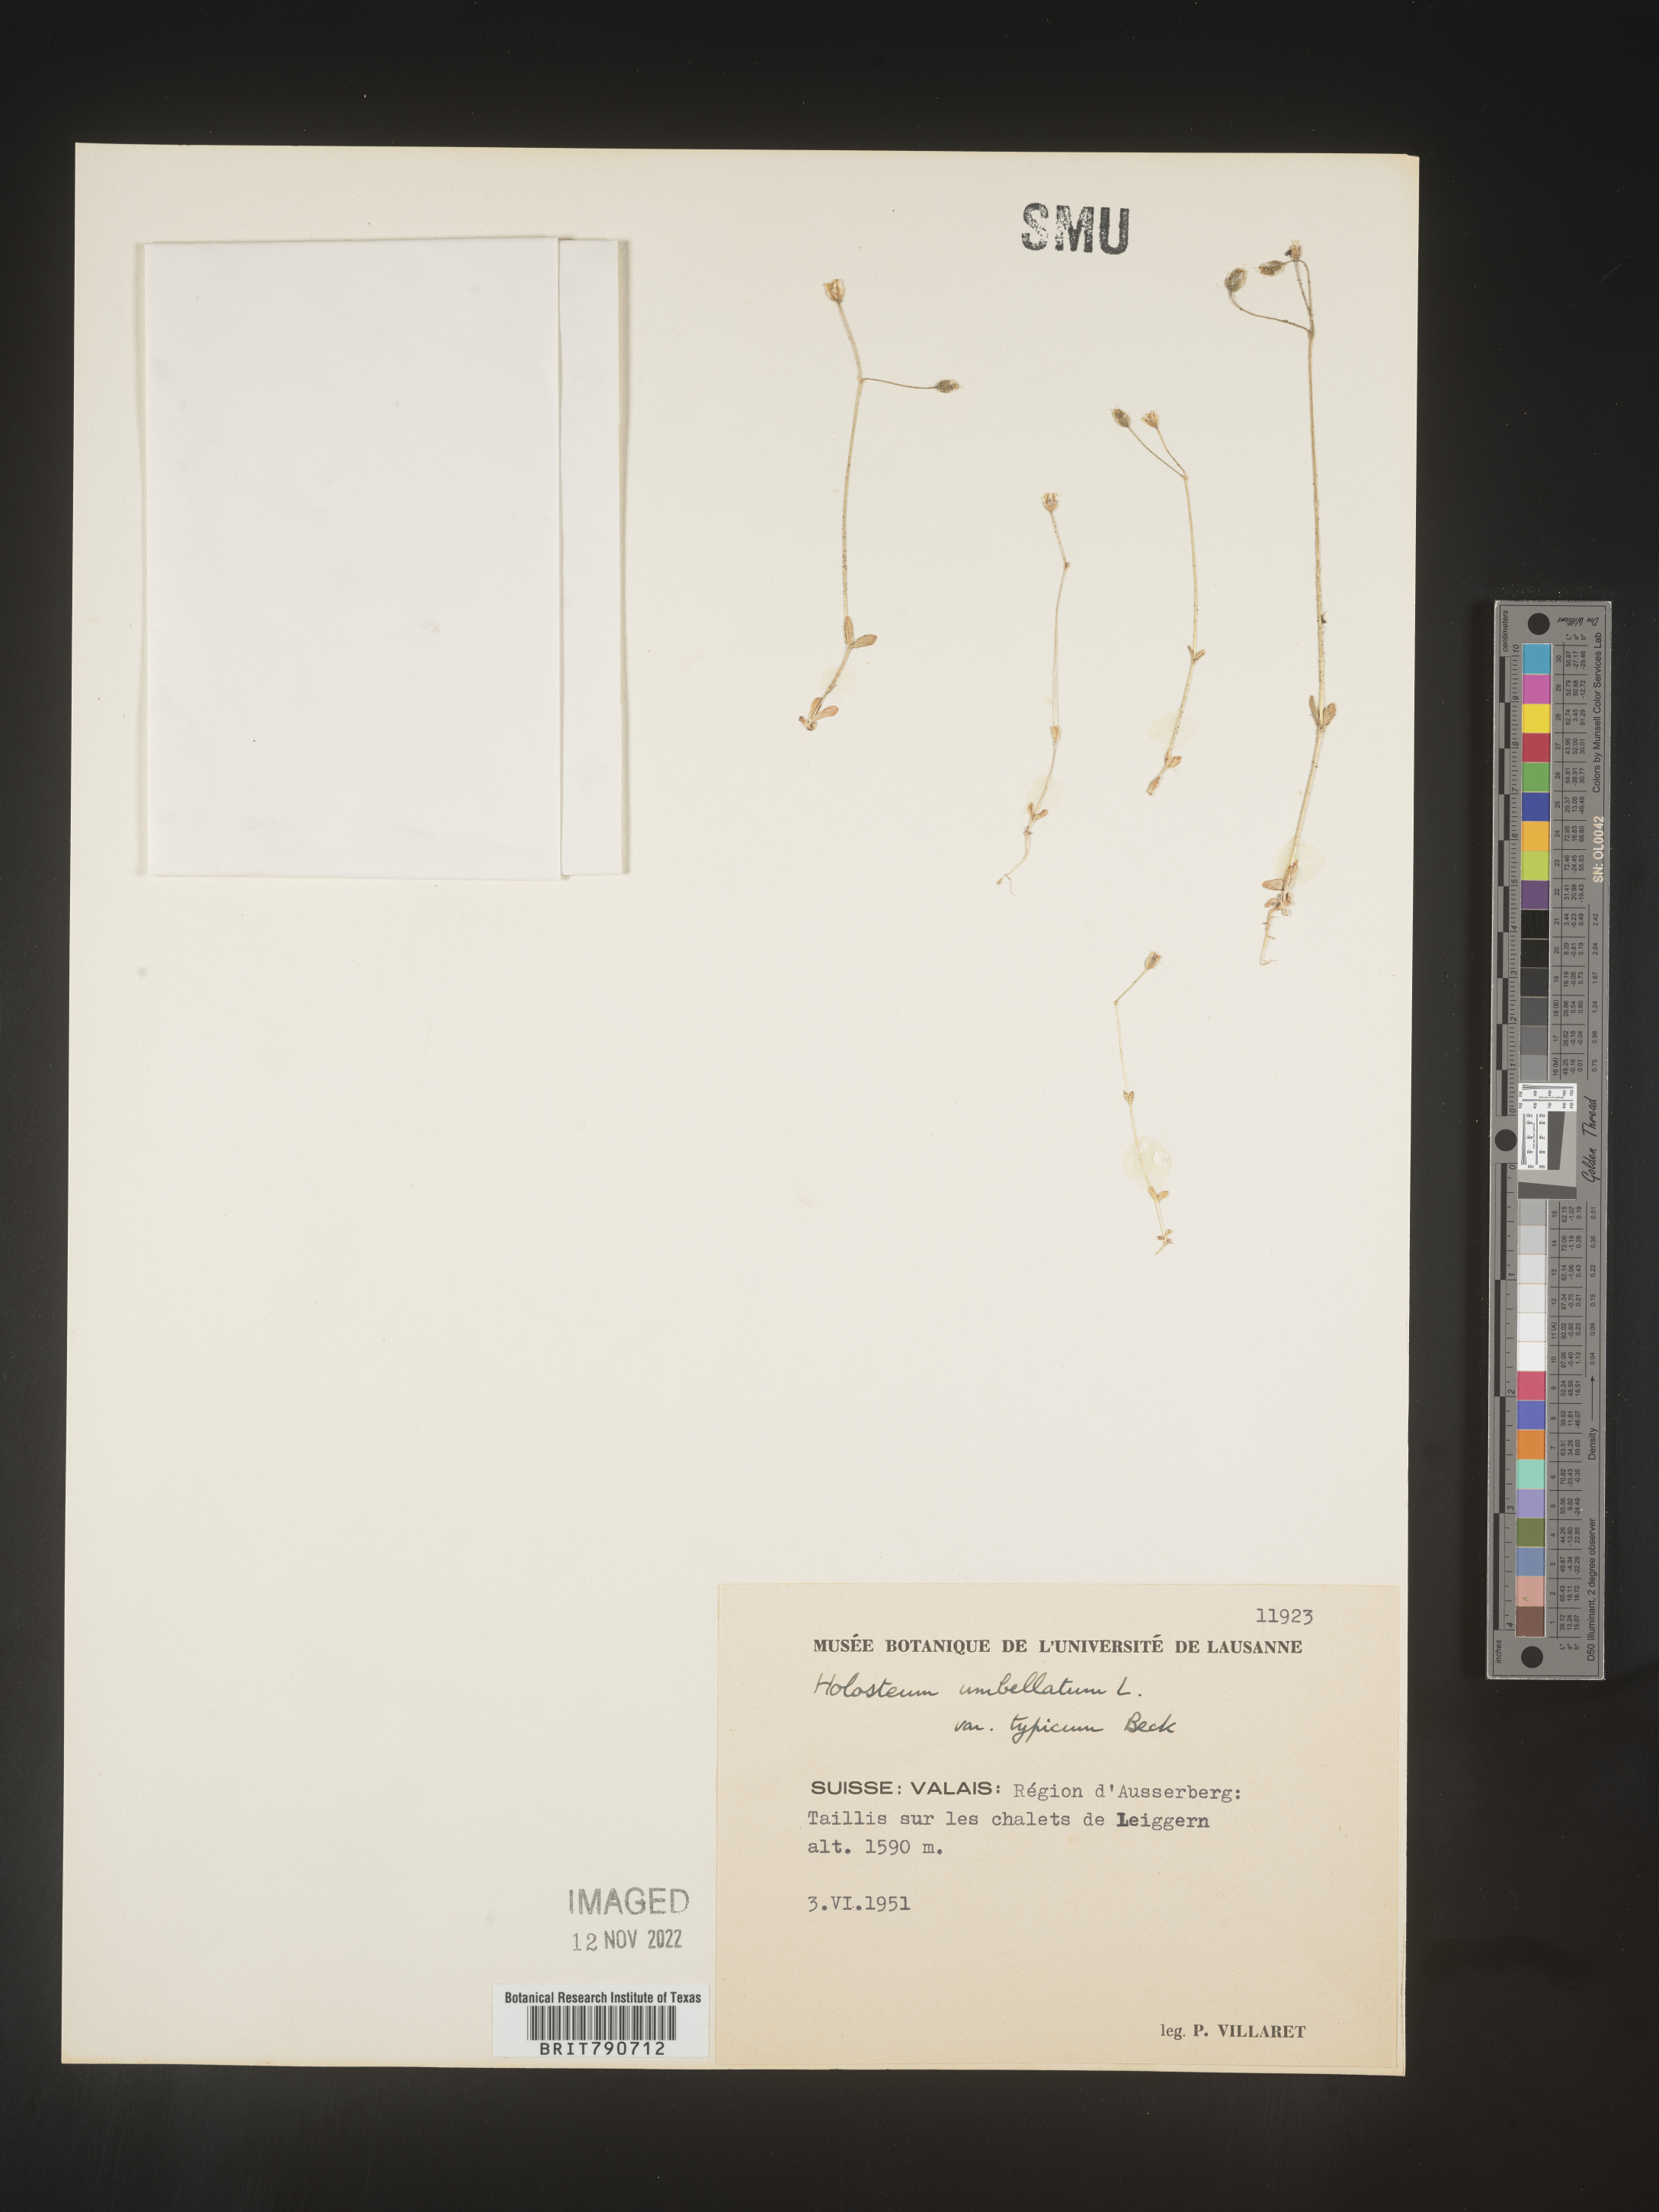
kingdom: Plantae
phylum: Tracheophyta
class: Magnoliopsida
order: Caryophyllales
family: Caryophyllaceae
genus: Holosteum
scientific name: Holosteum
